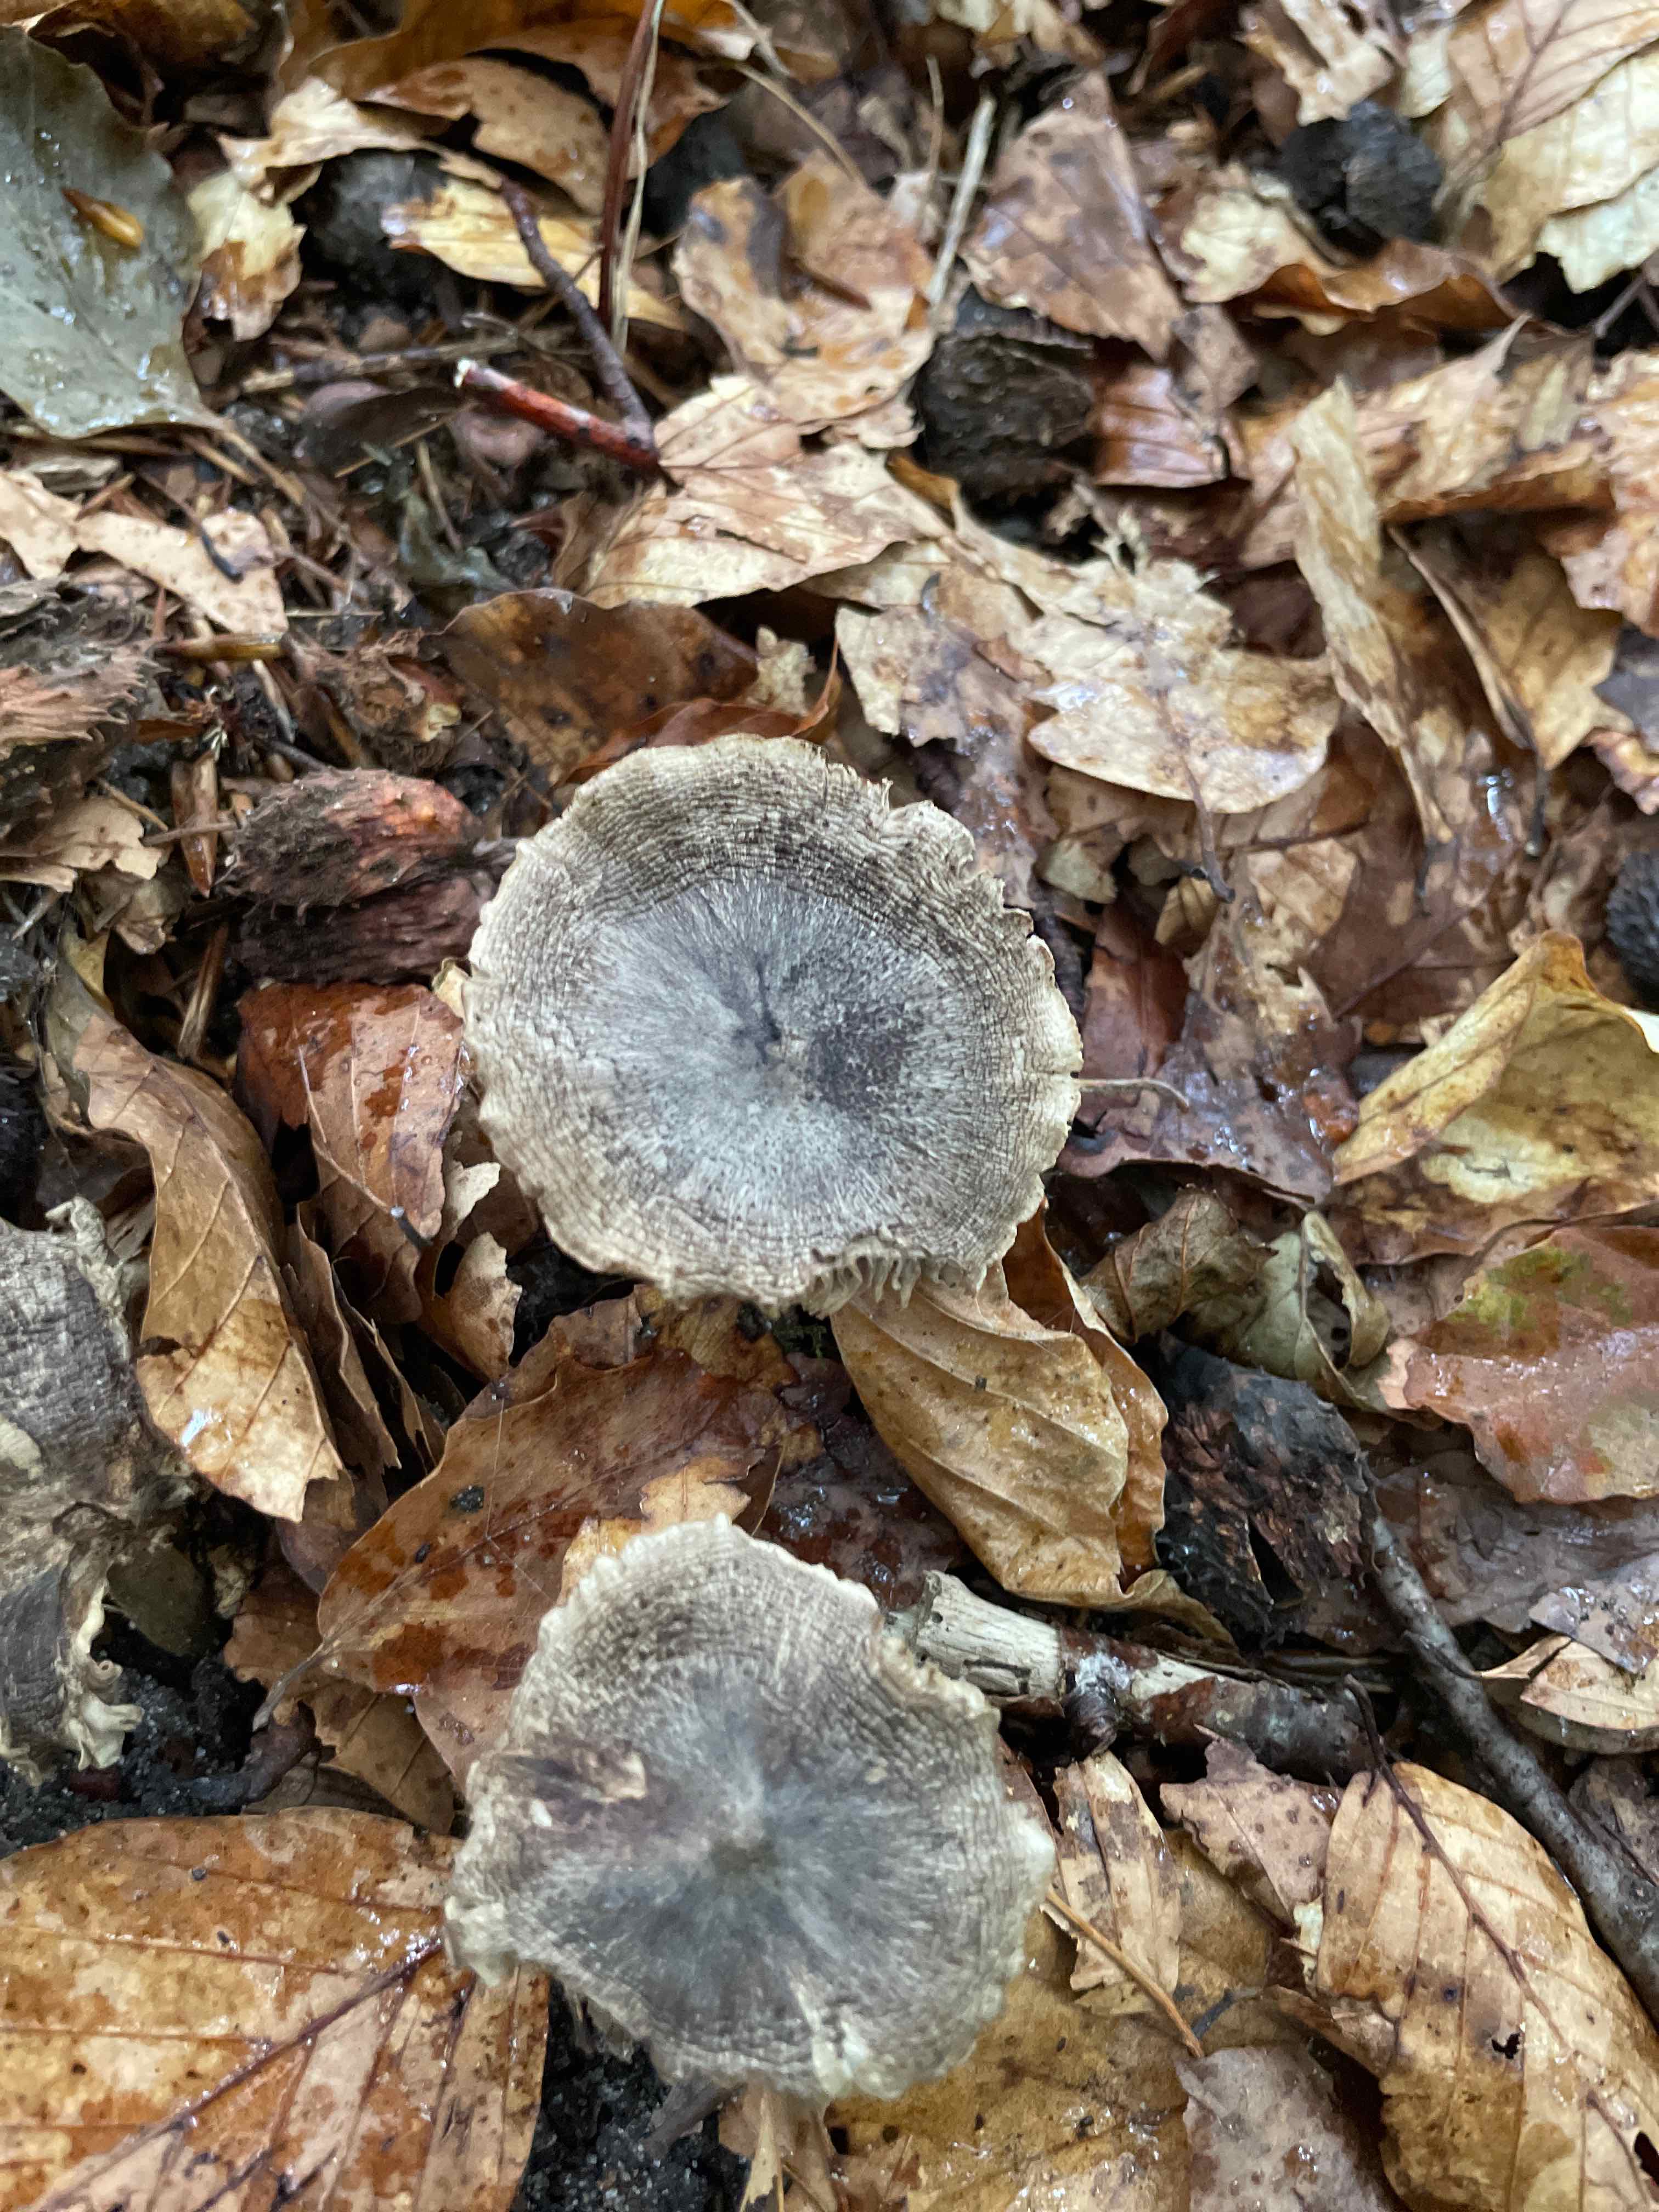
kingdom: Fungi
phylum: Basidiomycota
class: Agaricomycetes
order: Agaricales
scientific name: Agaricales
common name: champignonordenen
